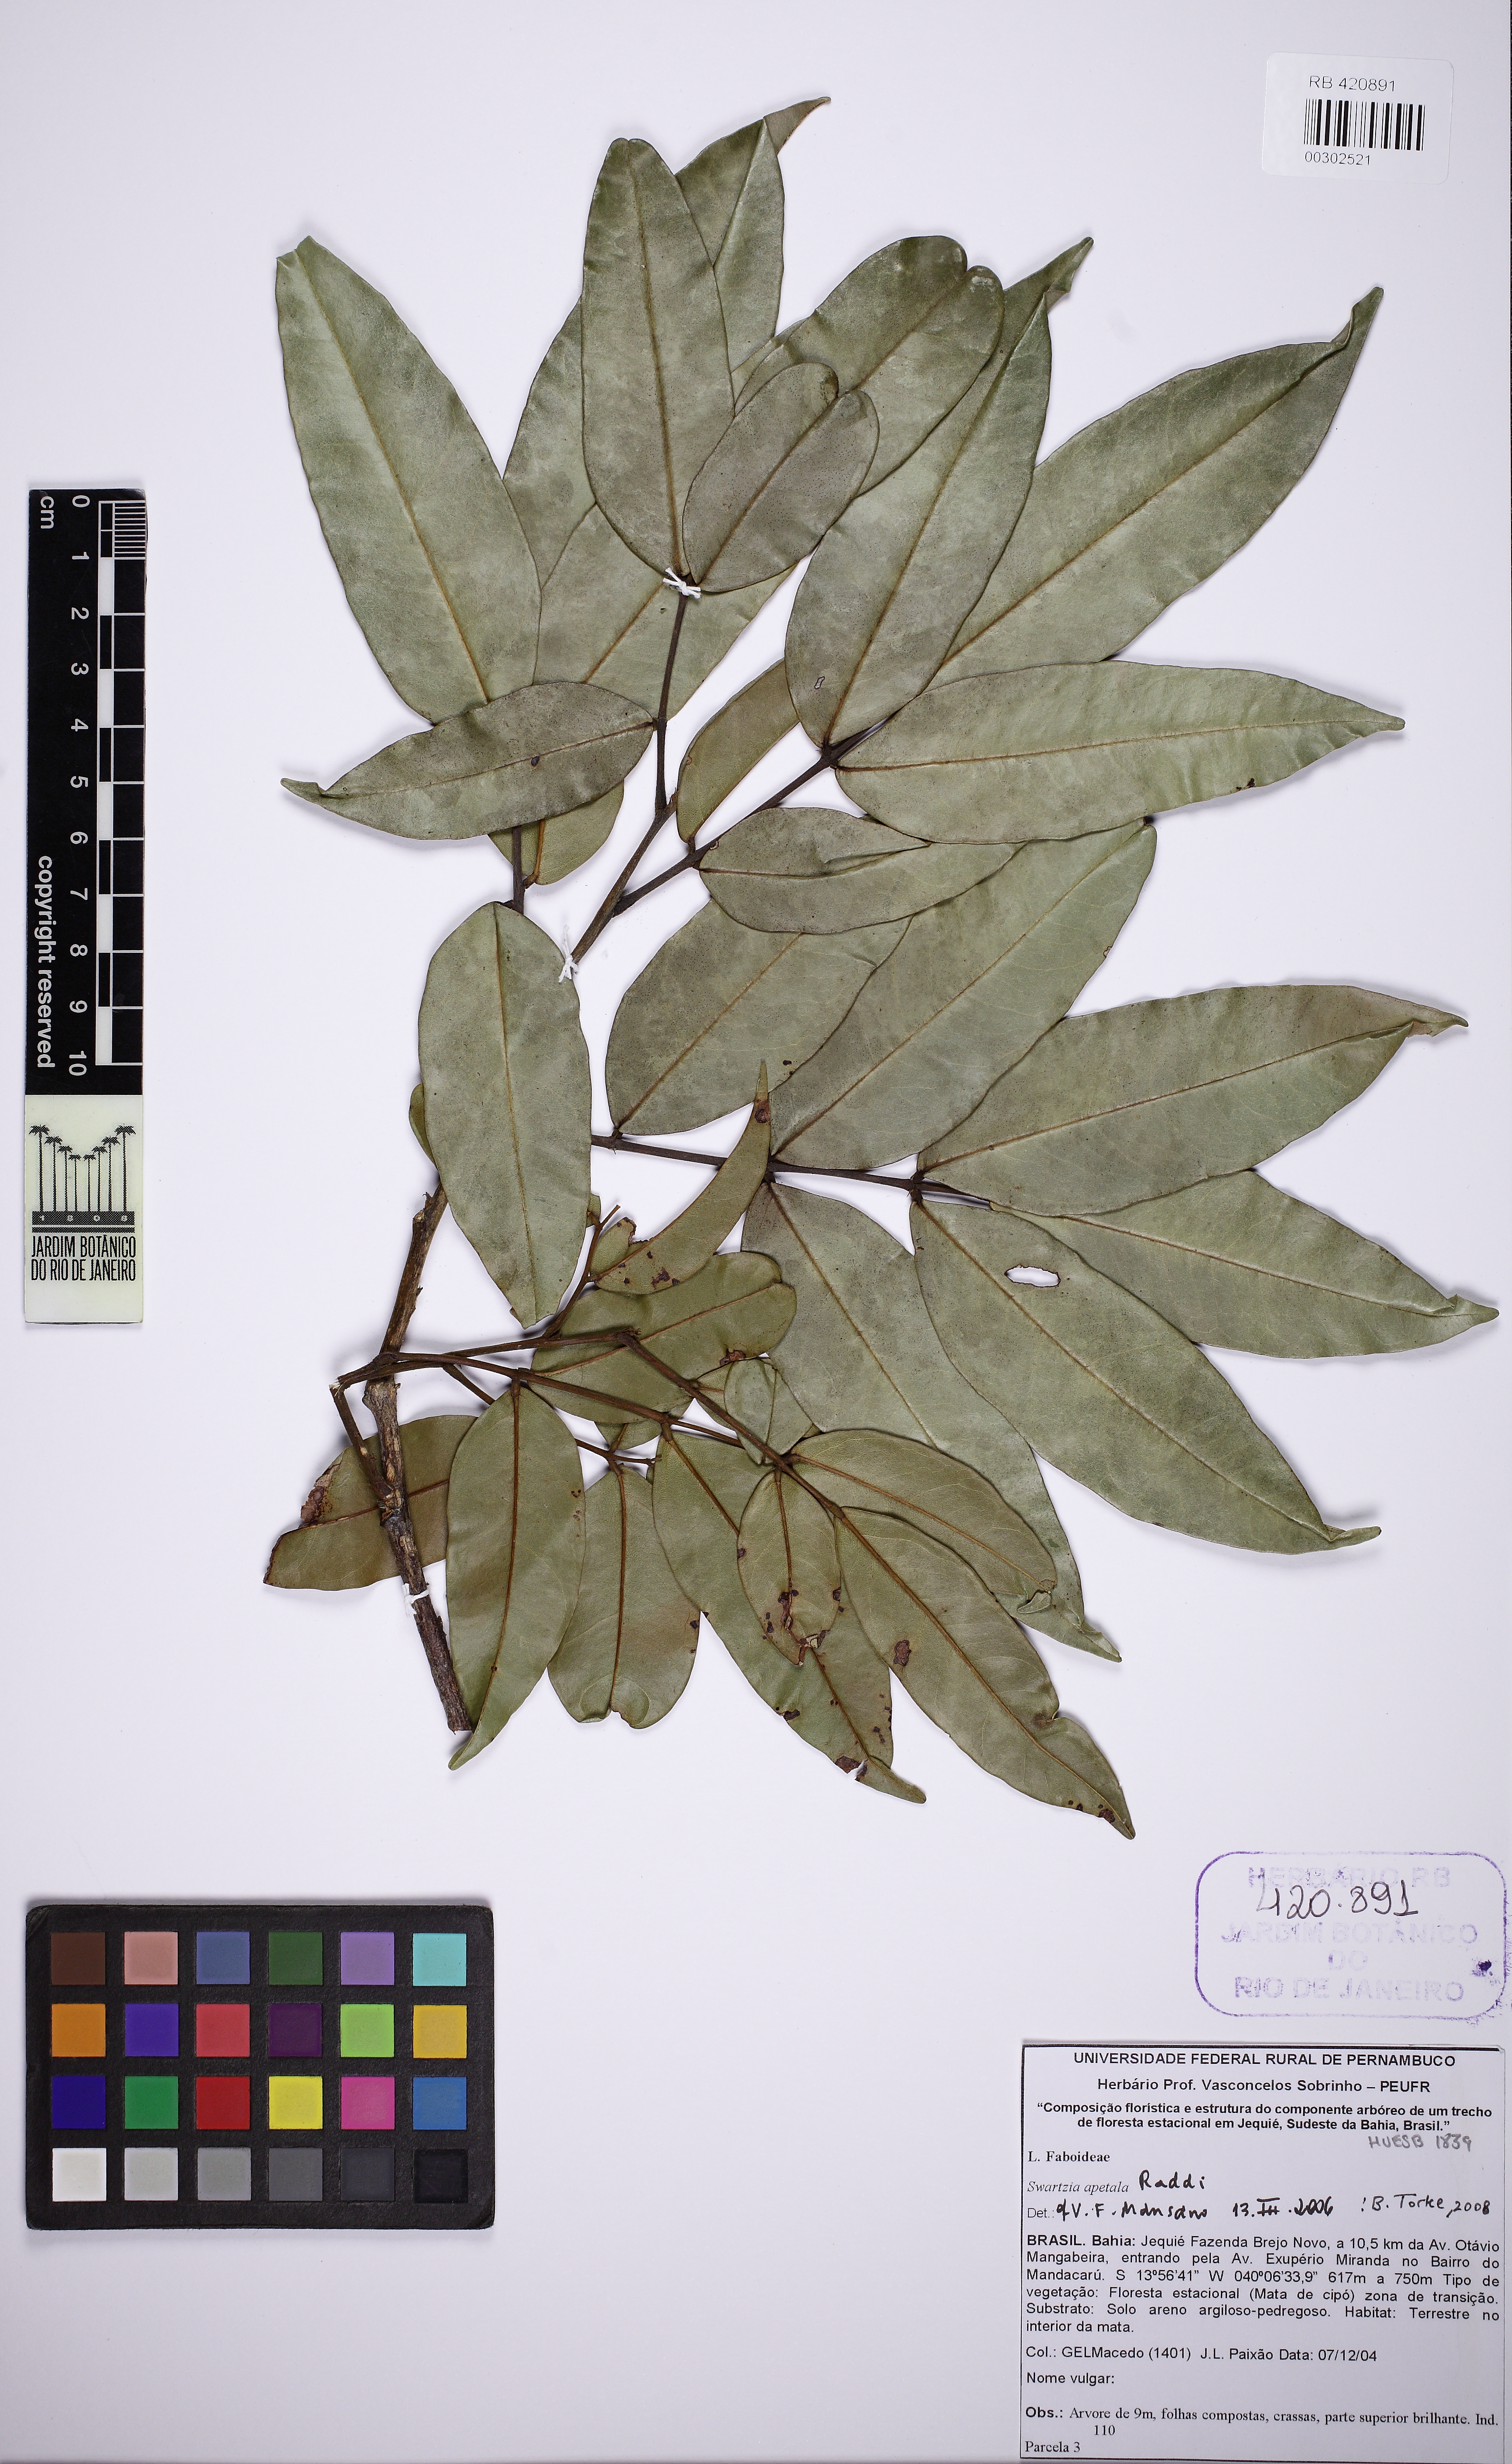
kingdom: Plantae
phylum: Tracheophyta
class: Magnoliopsida
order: Fabales
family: Fabaceae
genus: Swartzia
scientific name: Swartzia apetala
